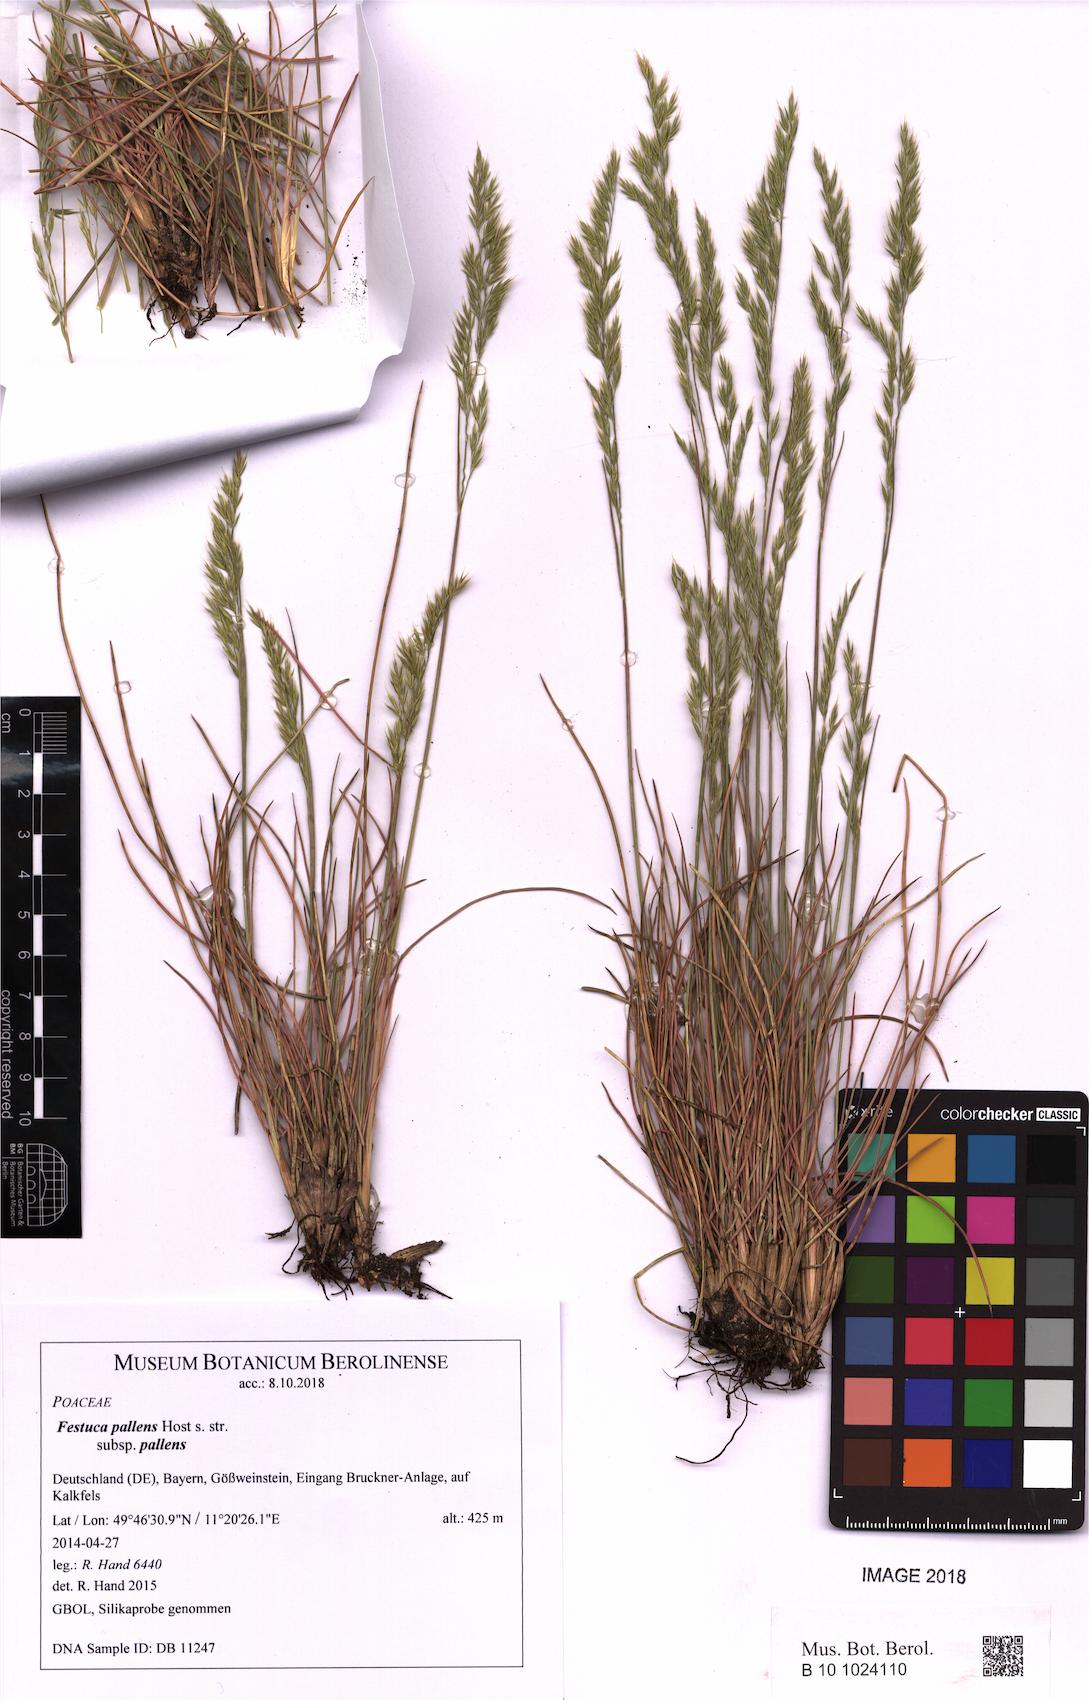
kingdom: Plantae
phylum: Tracheophyta
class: Liliopsida
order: Poales
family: Poaceae
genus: Festuca
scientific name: Festuca pallens
